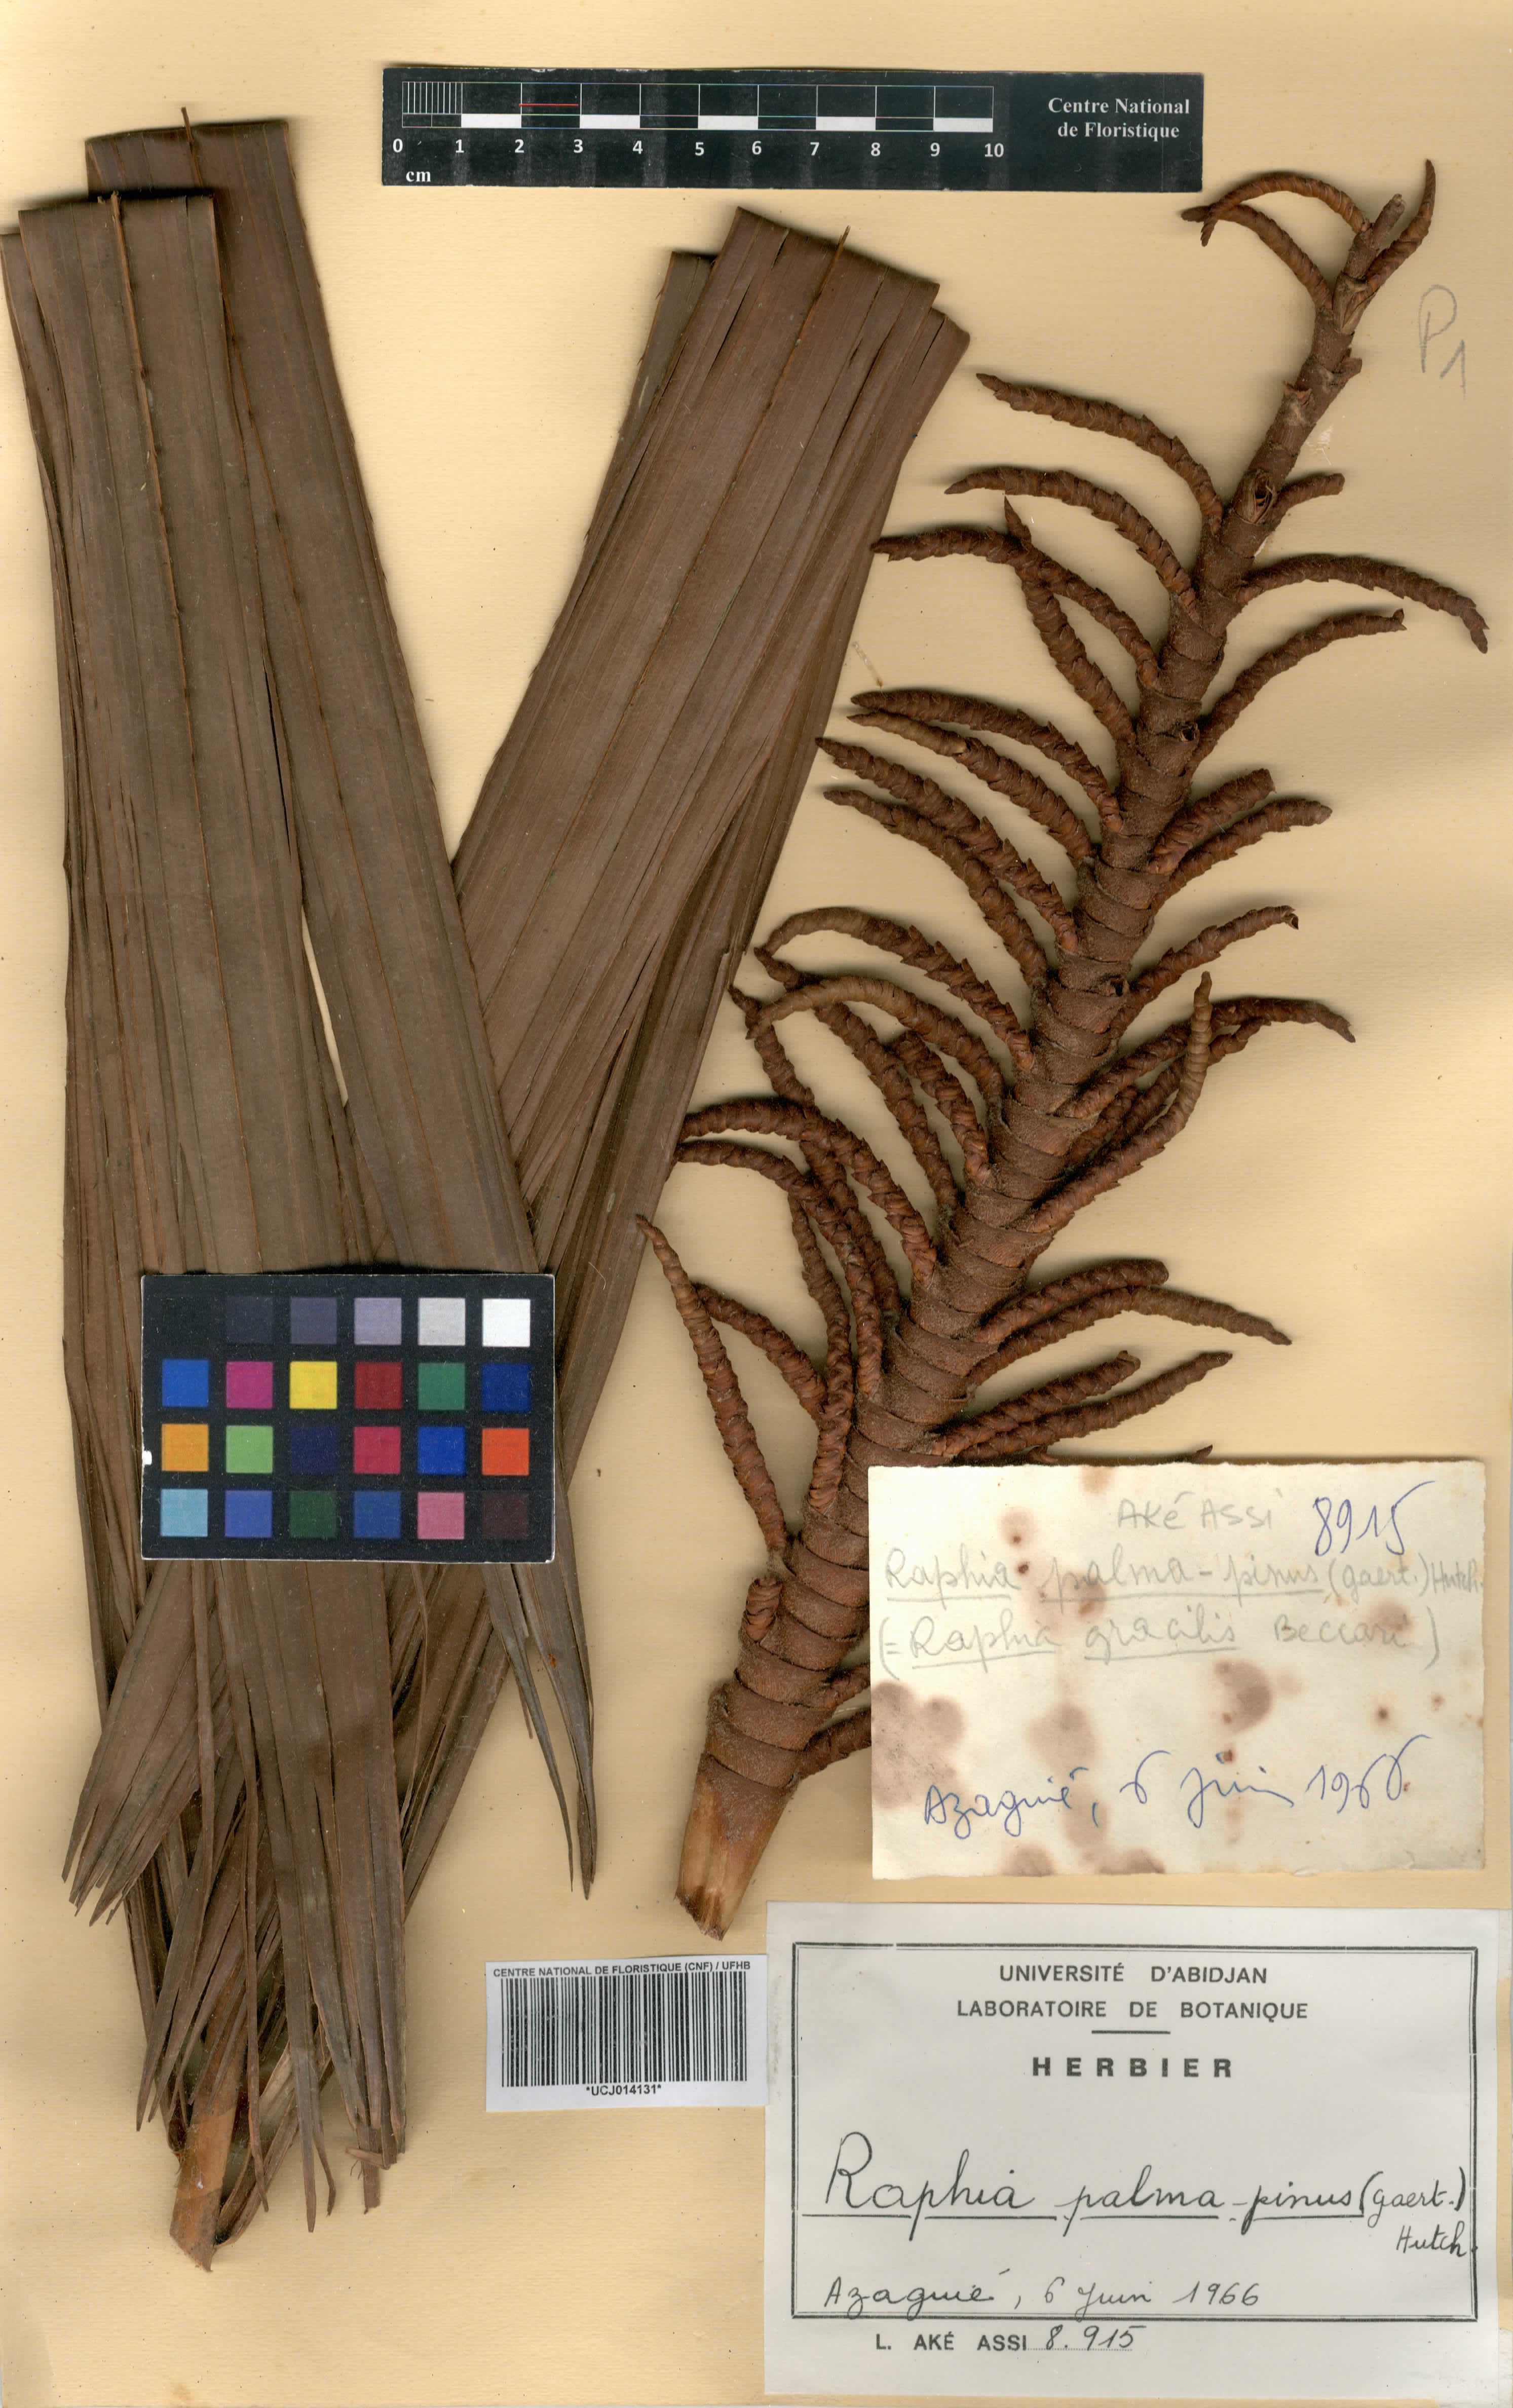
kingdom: Plantae
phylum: Tracheophyta
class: Liliopsida
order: Arecales
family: Arecaceae
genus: Raphia
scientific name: Raphia palma-pinus
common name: Raphia palm
